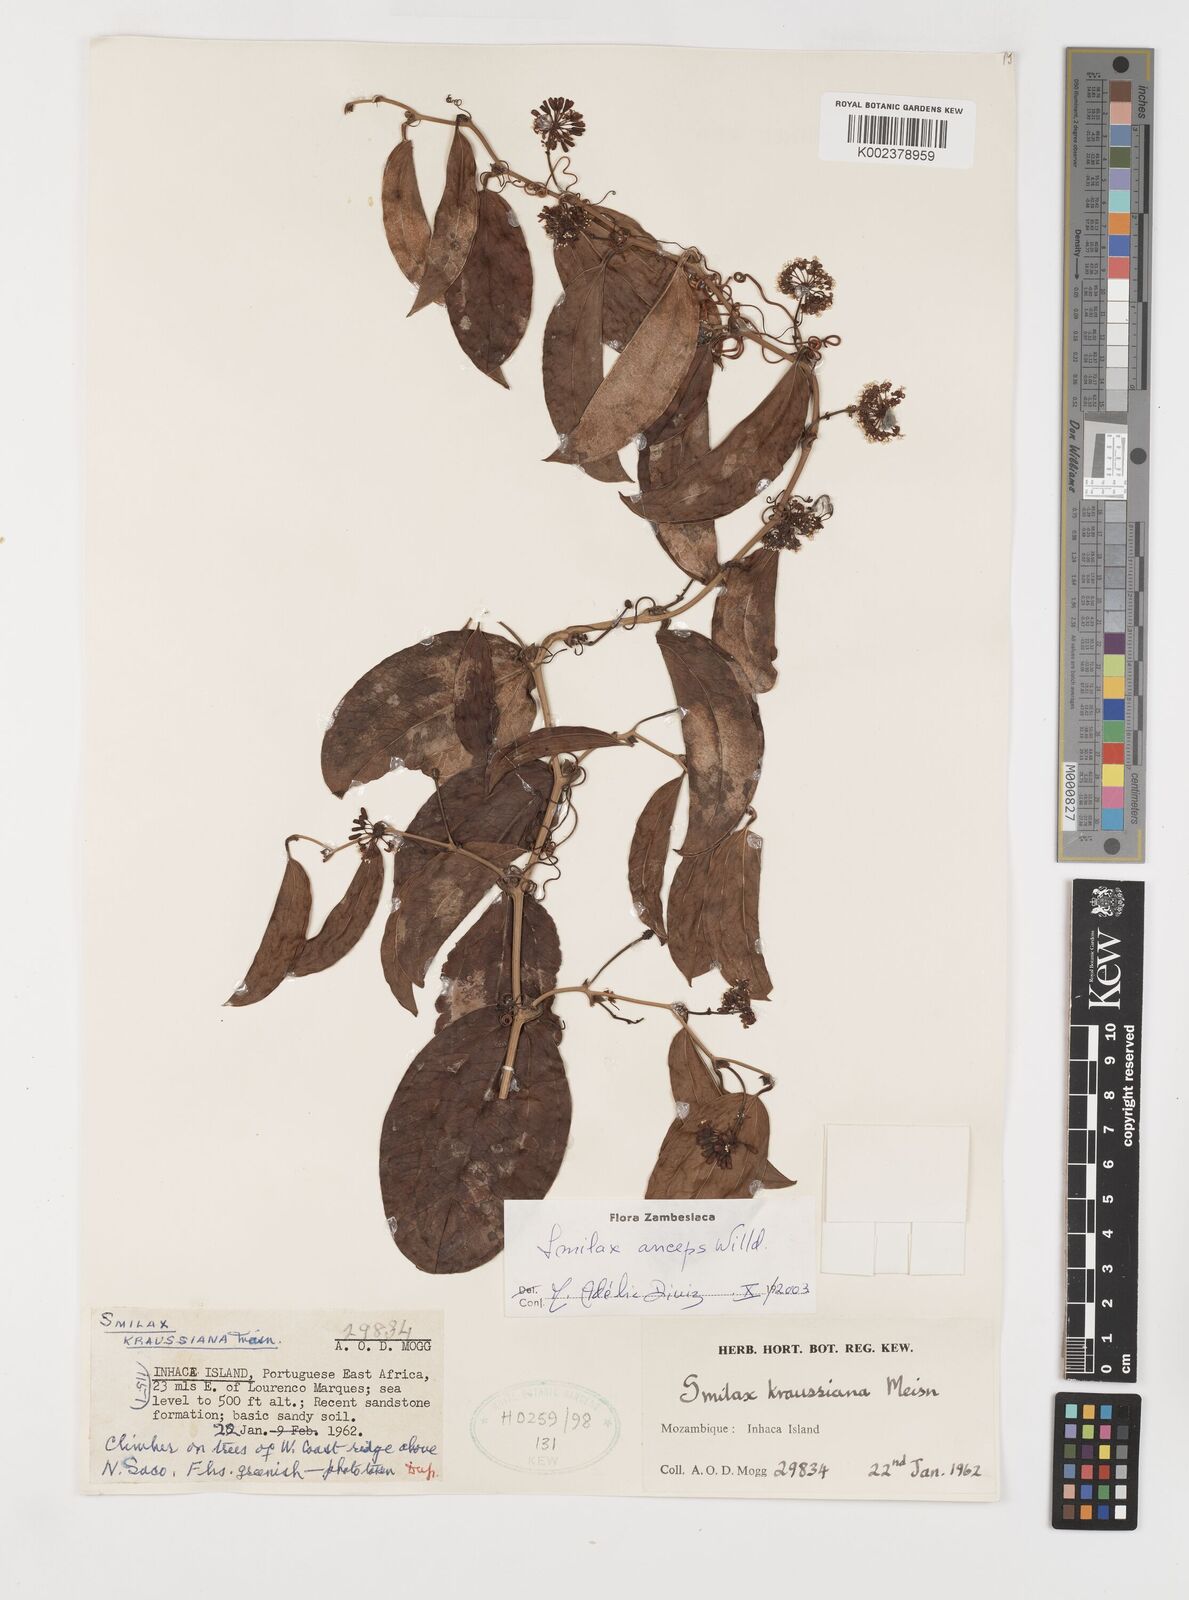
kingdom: Plantae
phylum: Tracheophyta
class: Liliopsida
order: Liliales
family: Smilacaceae
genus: Smilax
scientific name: Smilax anceps
